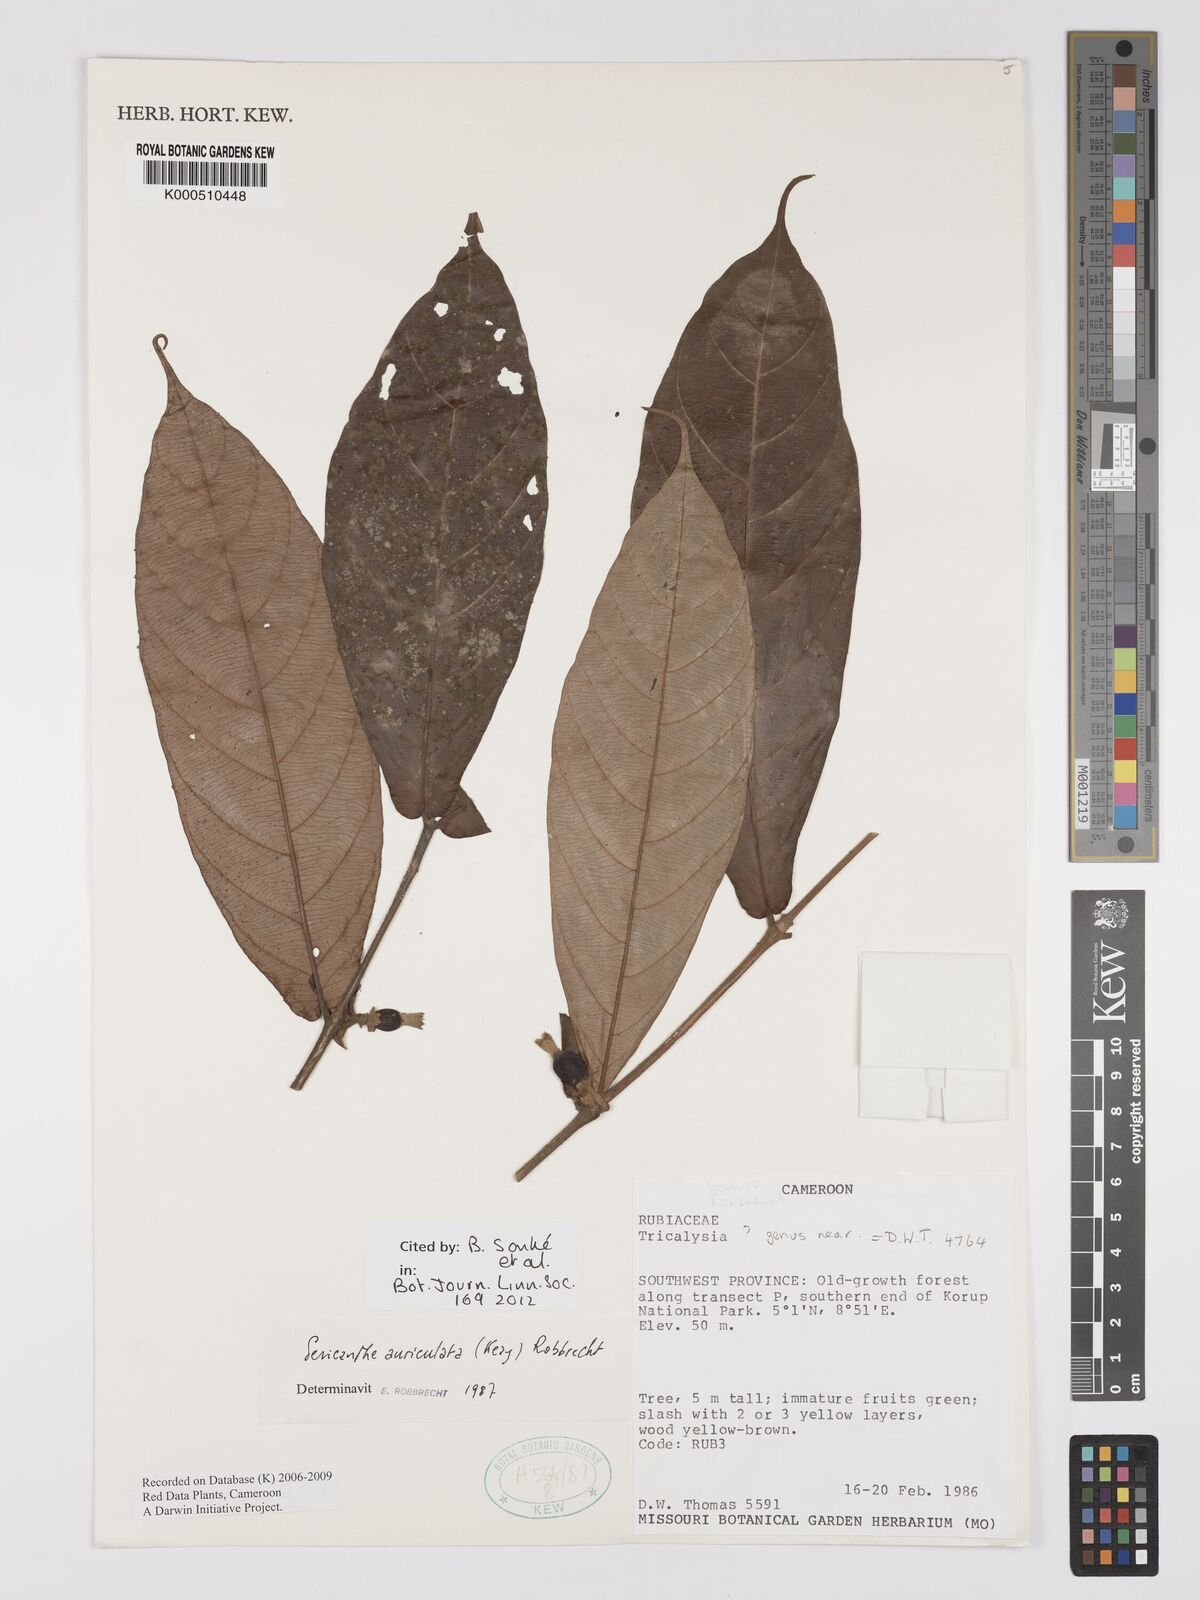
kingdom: Plantae
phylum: Tracheophyta
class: Magnoliopsida
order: Gentianales
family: Rubiaceae
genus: Sericanthe
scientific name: Sericanthe auriculata
